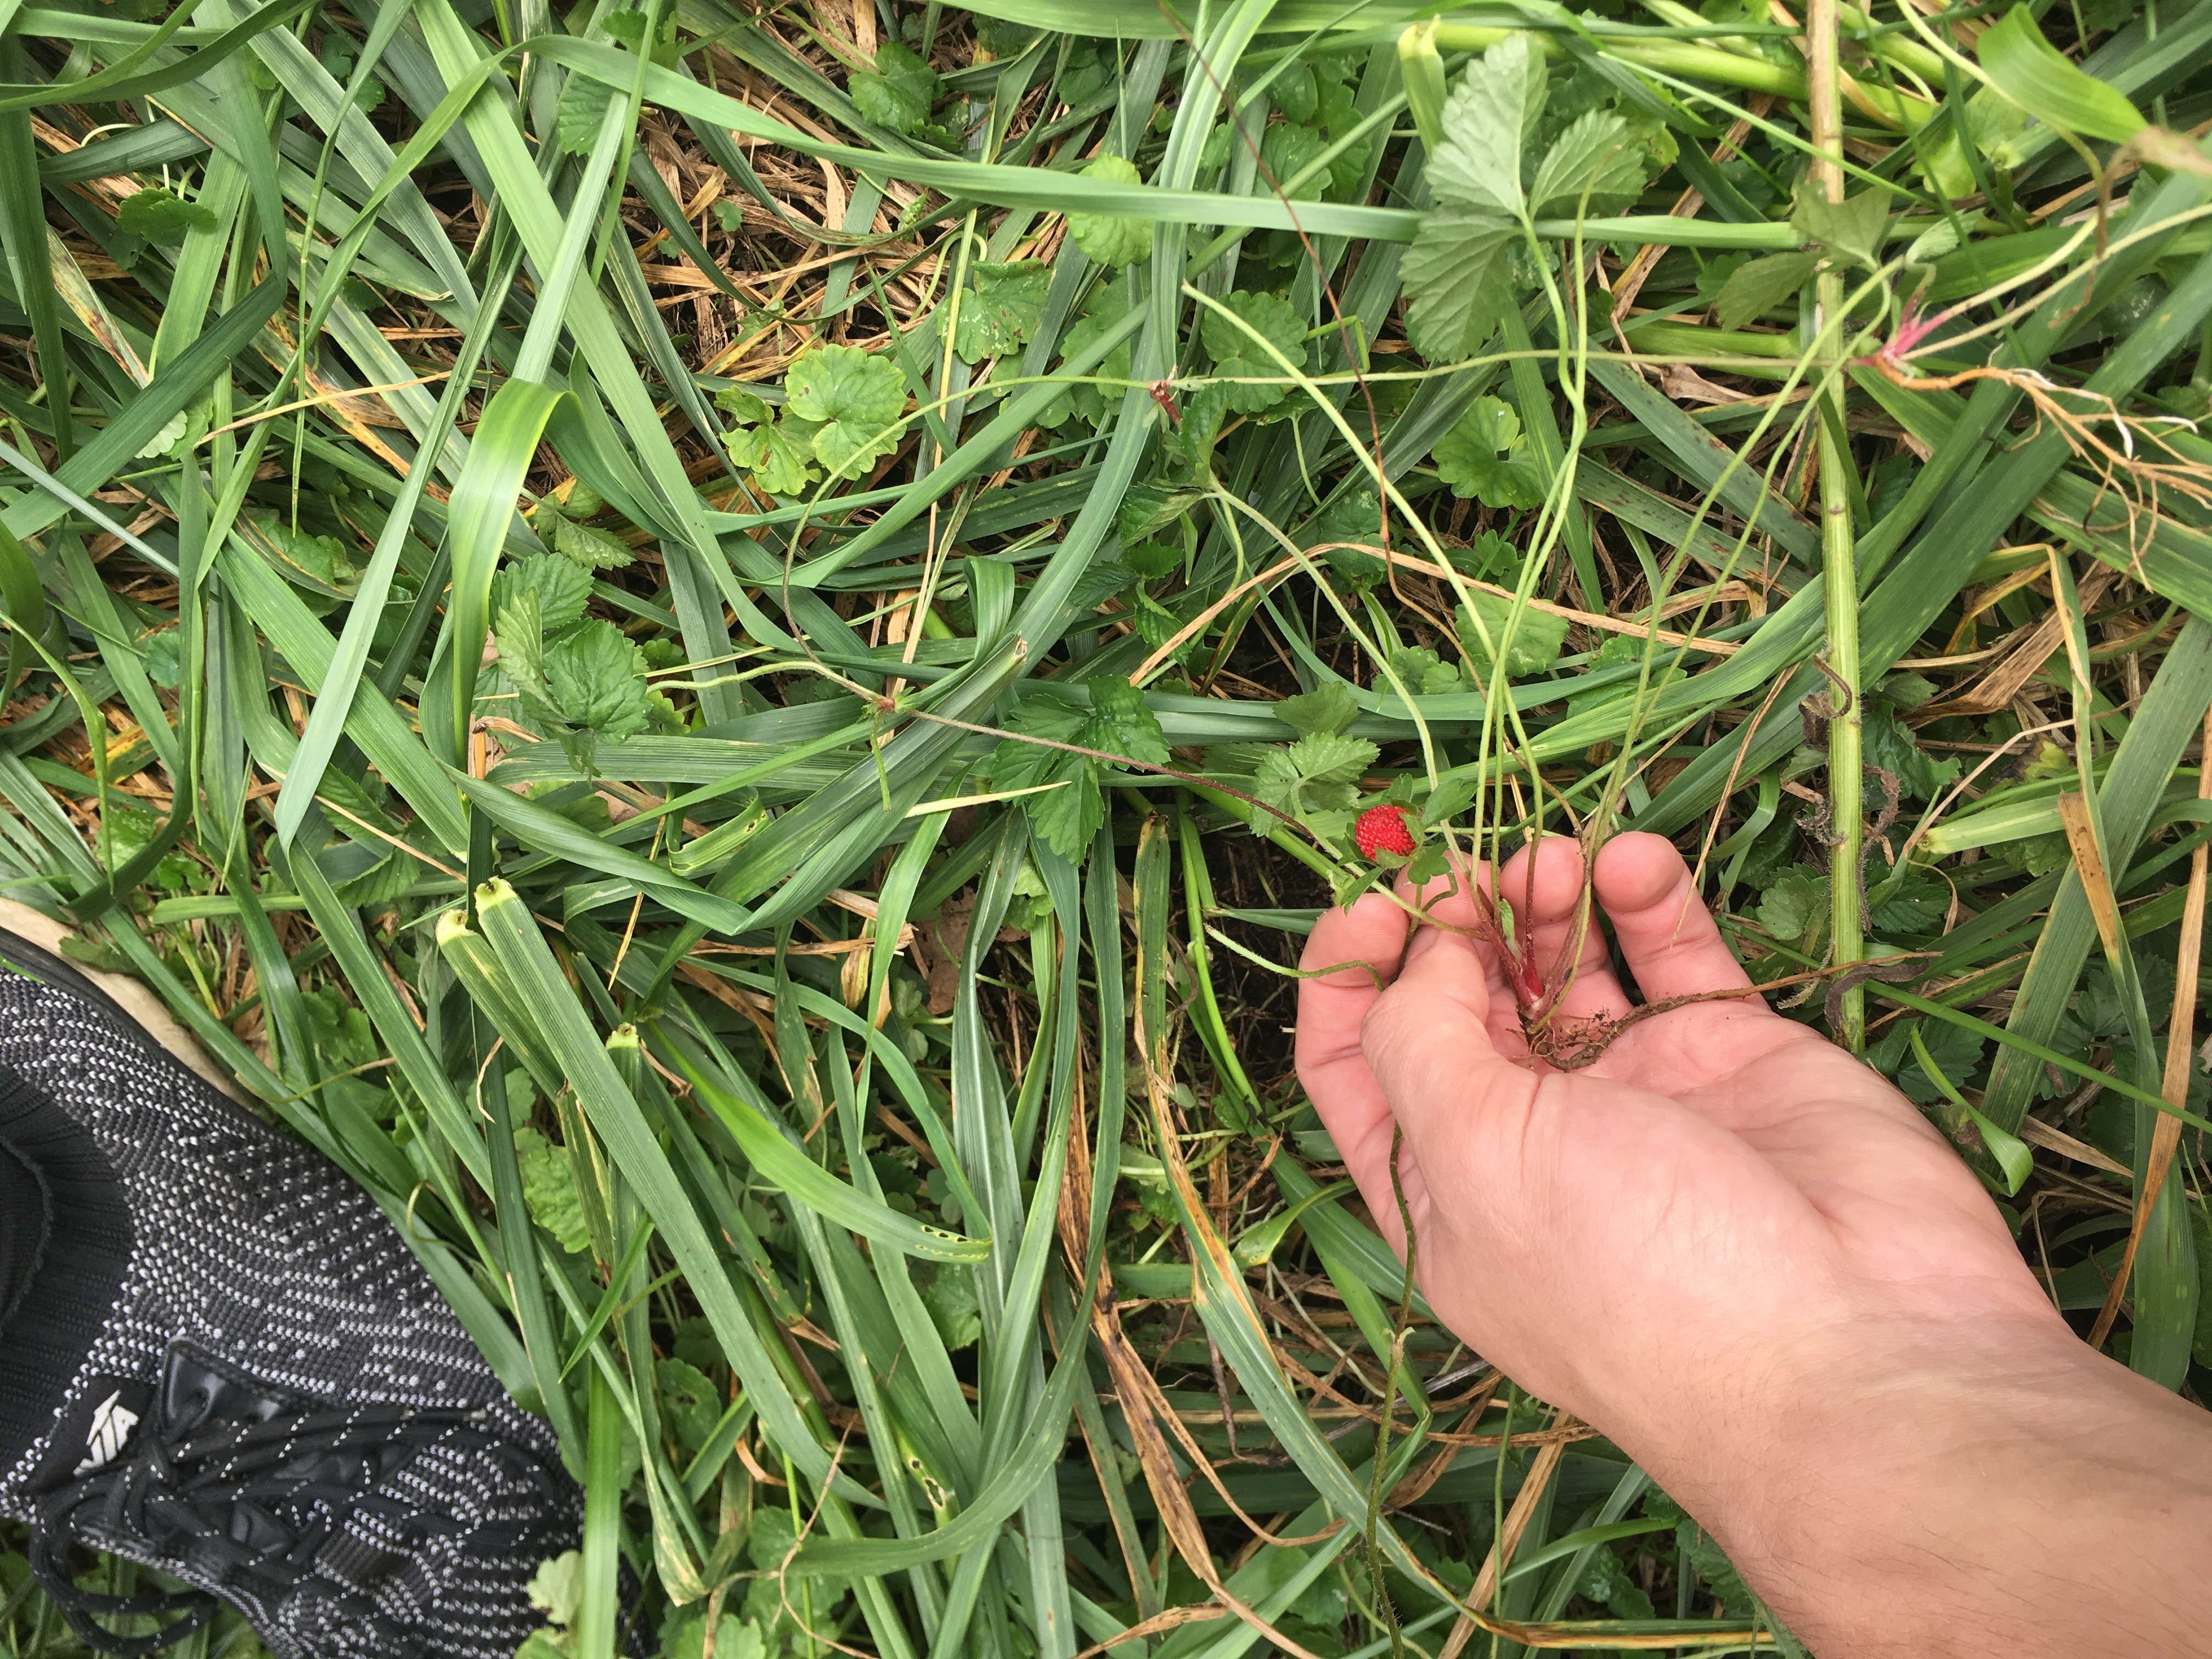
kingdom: Plantae
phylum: Tracheophyta
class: Magnoliopsida
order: Rosales
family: Rosaceae
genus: Potentilla
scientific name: Potentilla indica
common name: Indian-strawberry
